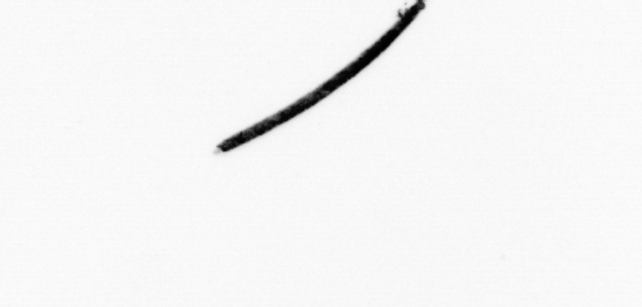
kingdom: Bacteria
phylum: Cyanobacteria
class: Cyanobacteriia
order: Cyanobacteriales
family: Microcoleaceae
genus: Trichodesmium
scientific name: Trichodesmium
